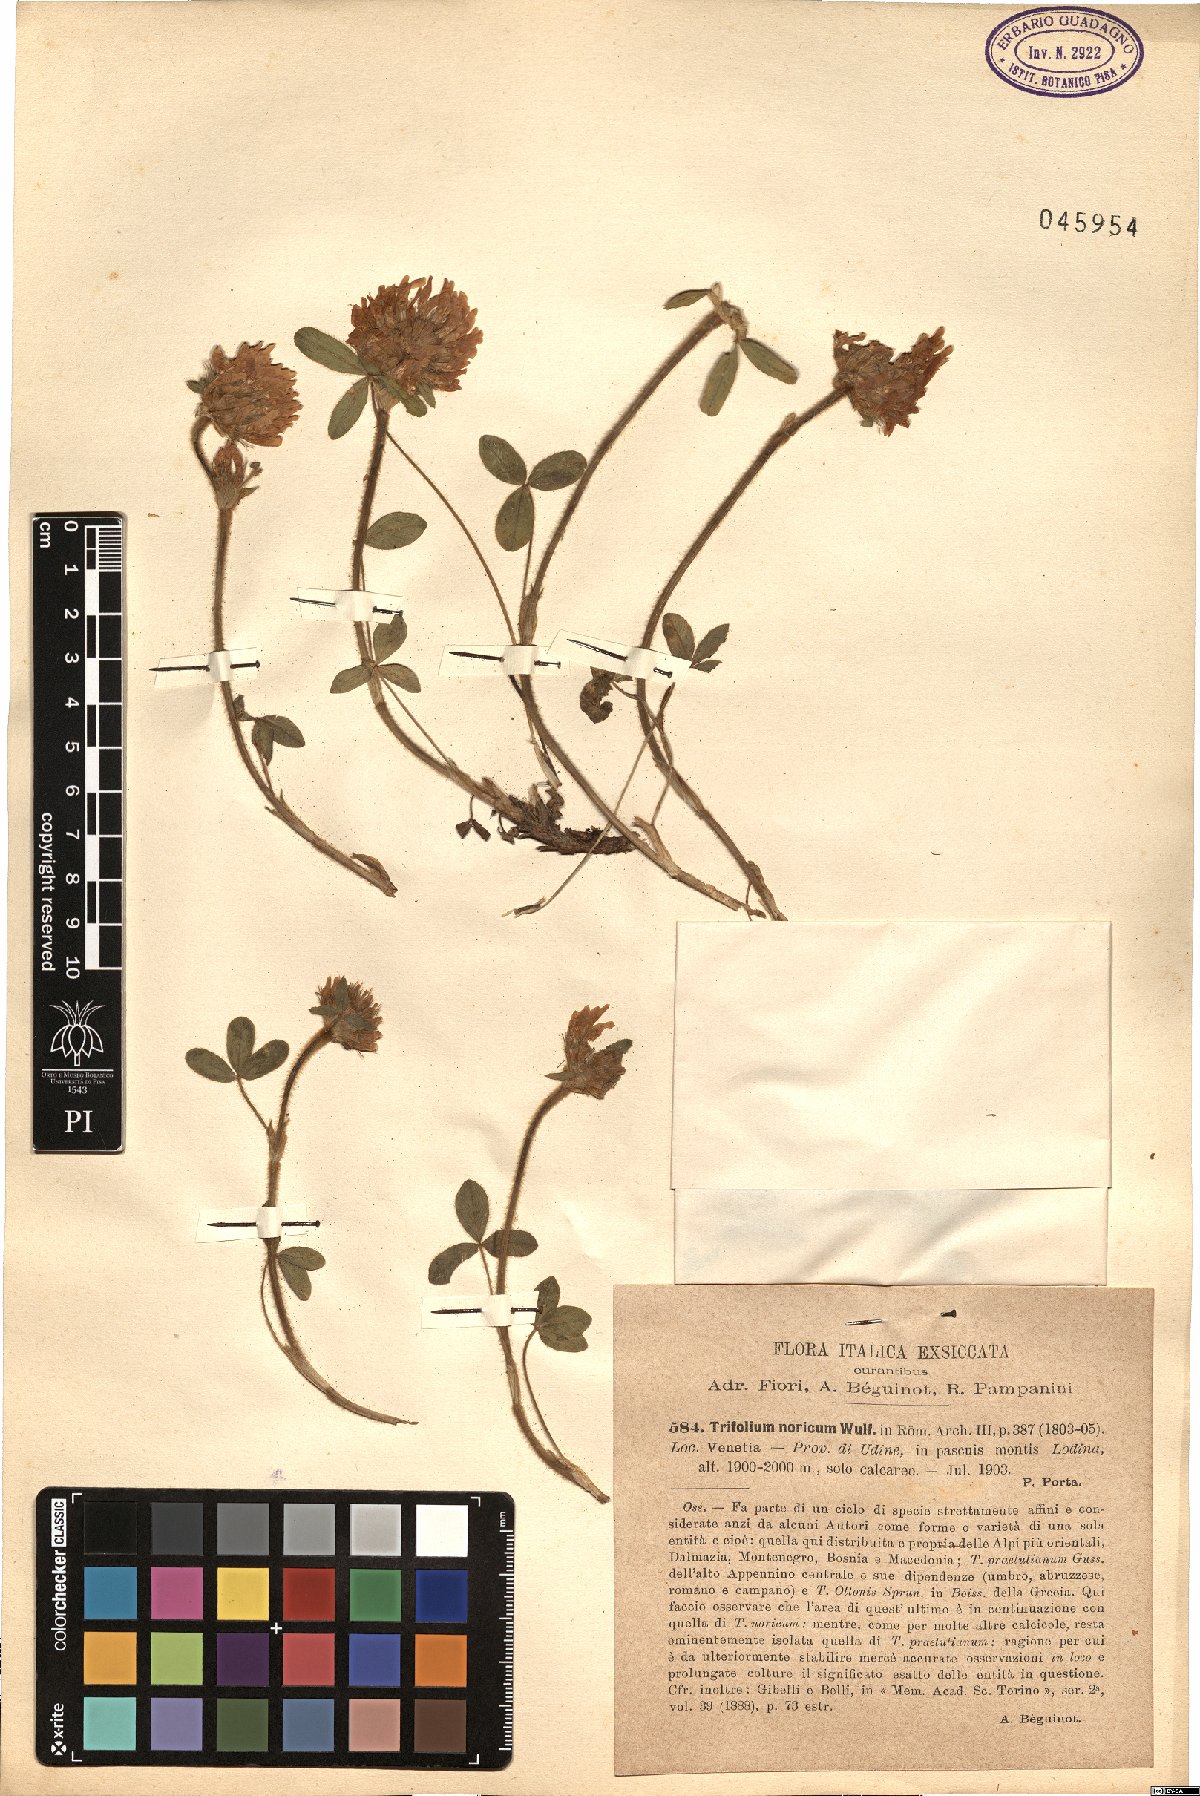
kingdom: Plantae
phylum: Tracheophyta
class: Magnoliopsida
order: Fabales
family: Fabaceae
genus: Trifolium
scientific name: Trifolium noricum
